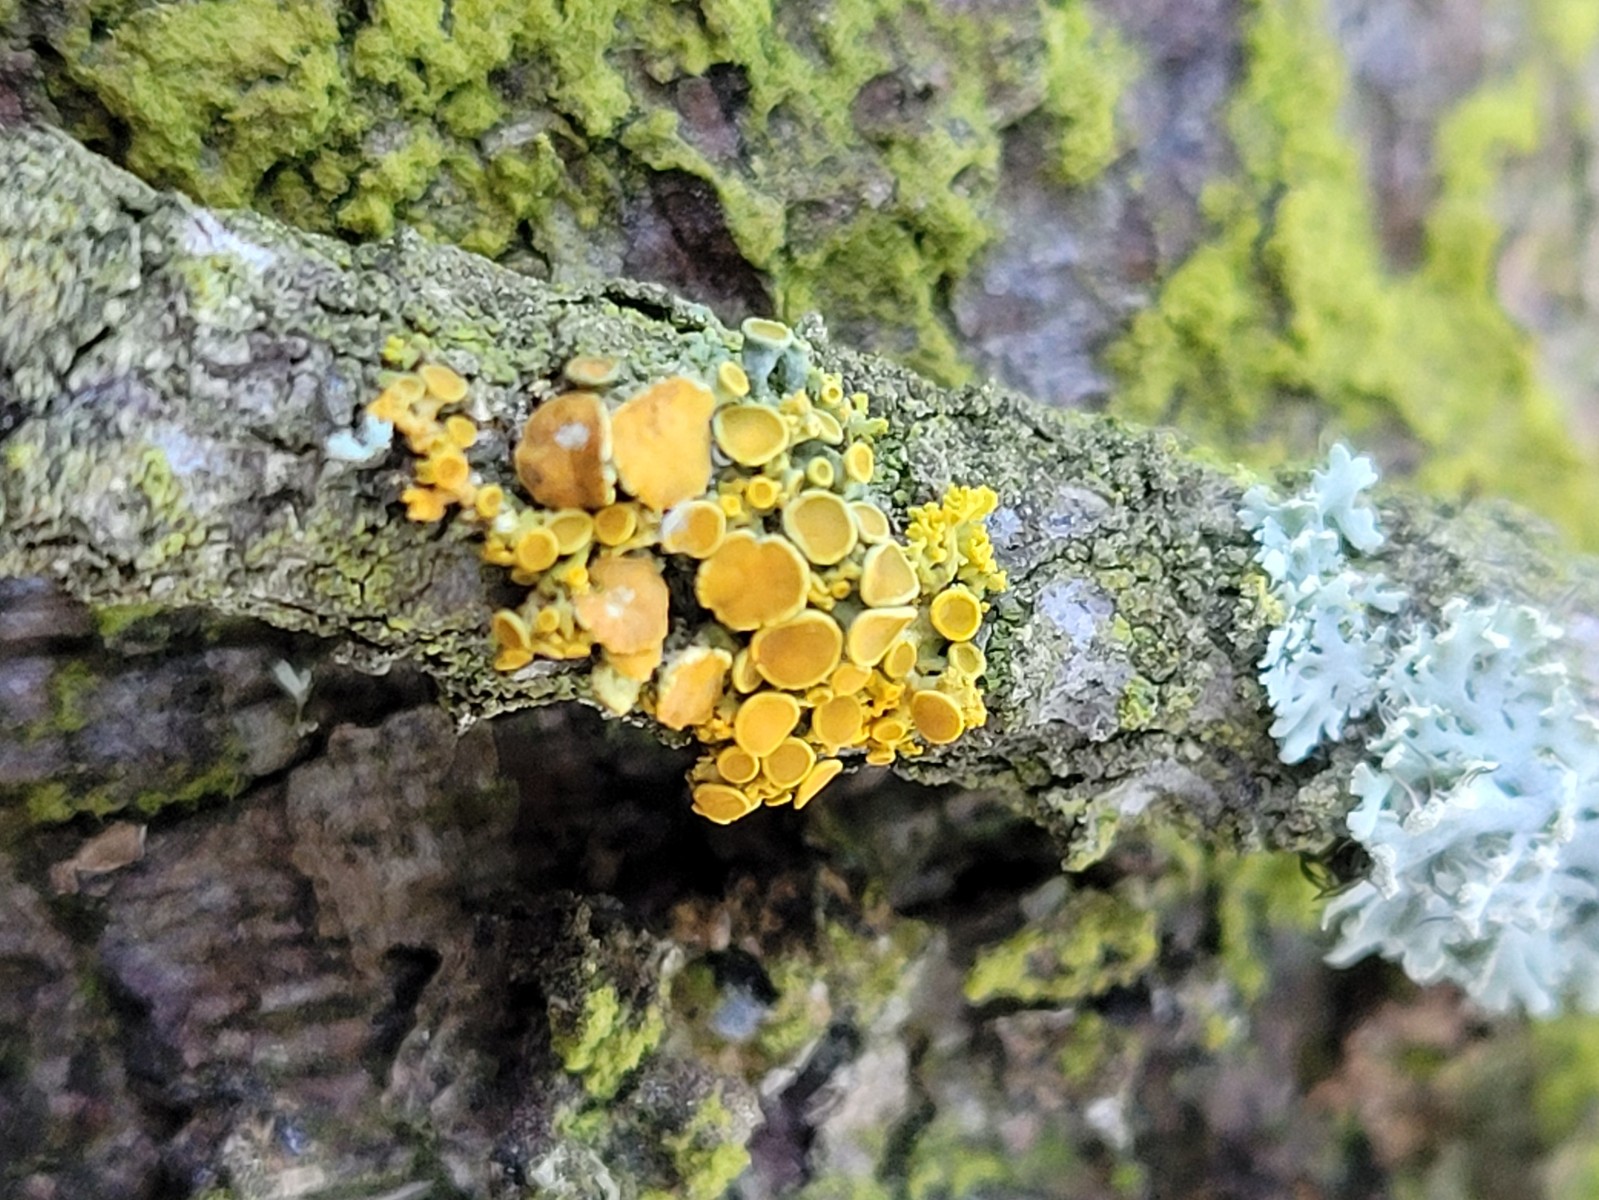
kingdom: Fungi
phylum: Ascomycota
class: Lecanoromycetes
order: Teloschistales
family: Teloschistaceae
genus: Polycauliona
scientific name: Polycauliona polycarpa
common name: mangefrugtet orangelav
